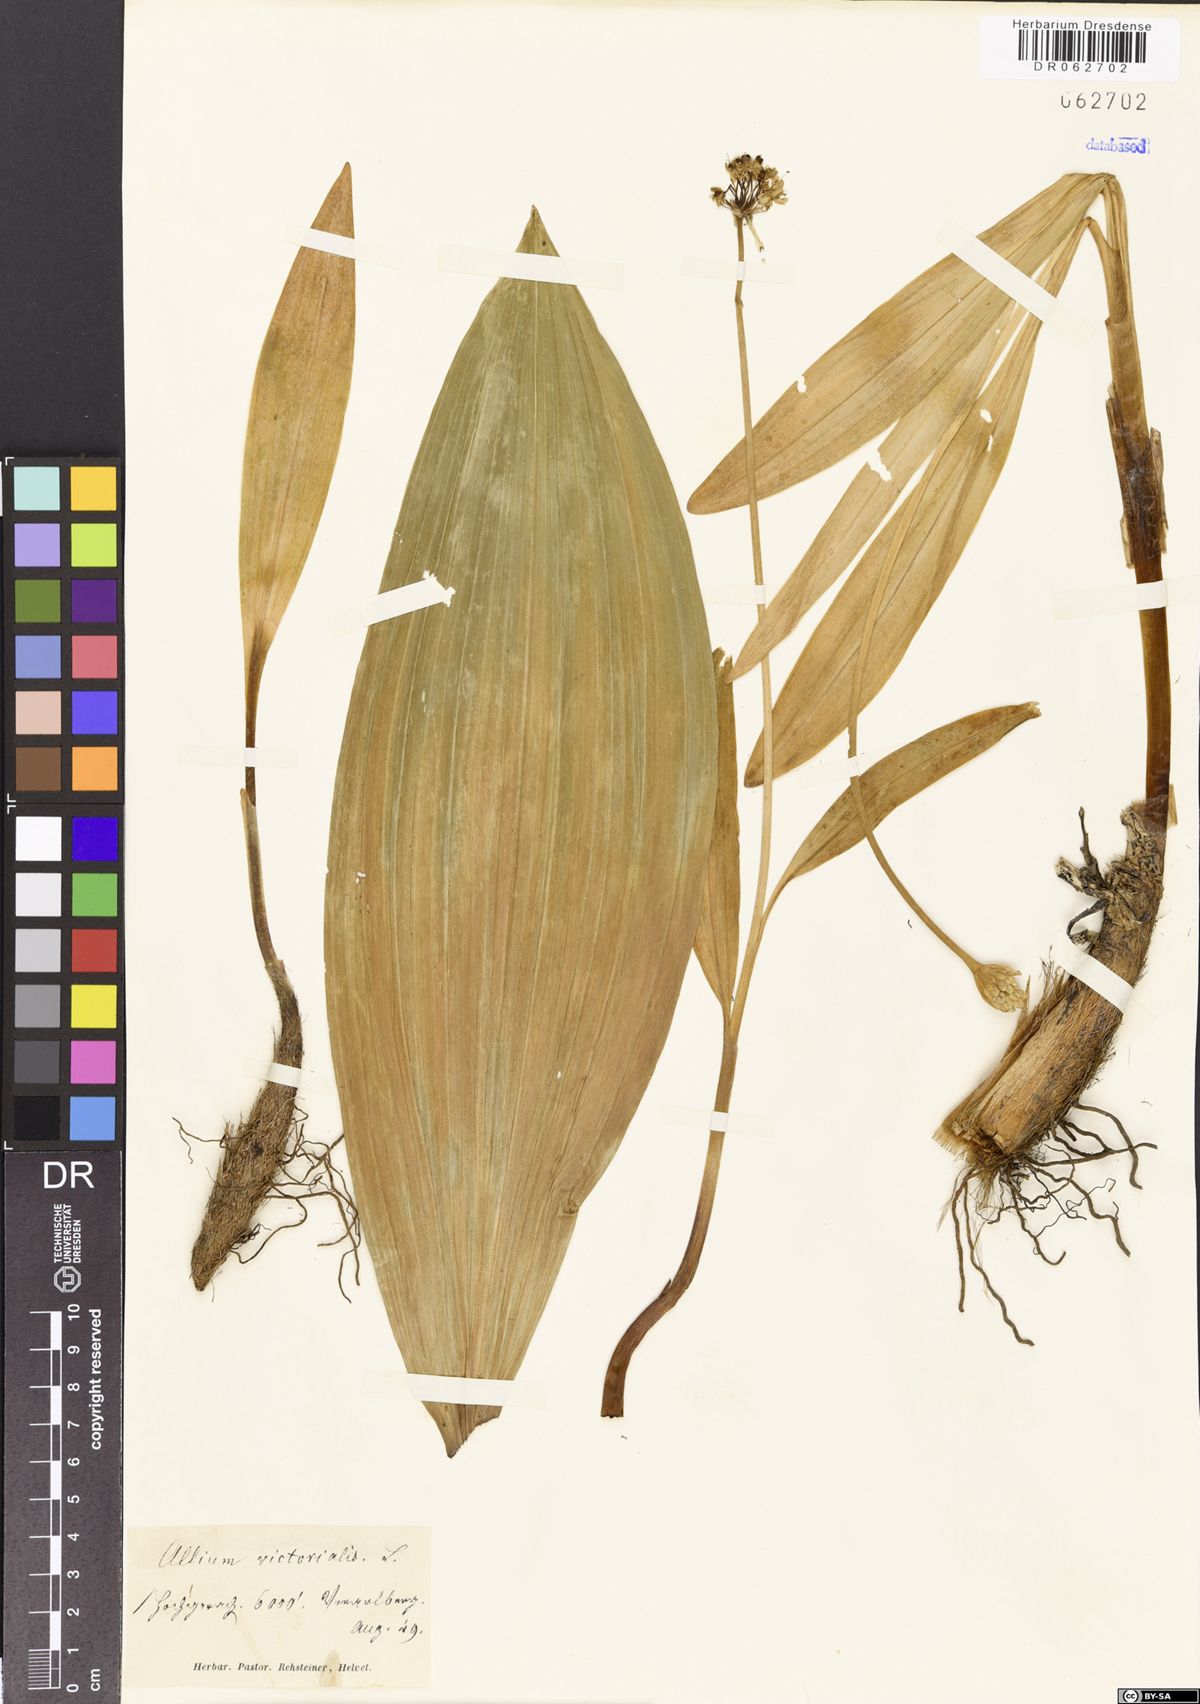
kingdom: Plantae
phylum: Tracheophyta
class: Liliopsida
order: Asparagales
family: Amaryllidaceae
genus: Allium
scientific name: Allium victorialis
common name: Alpine leek
